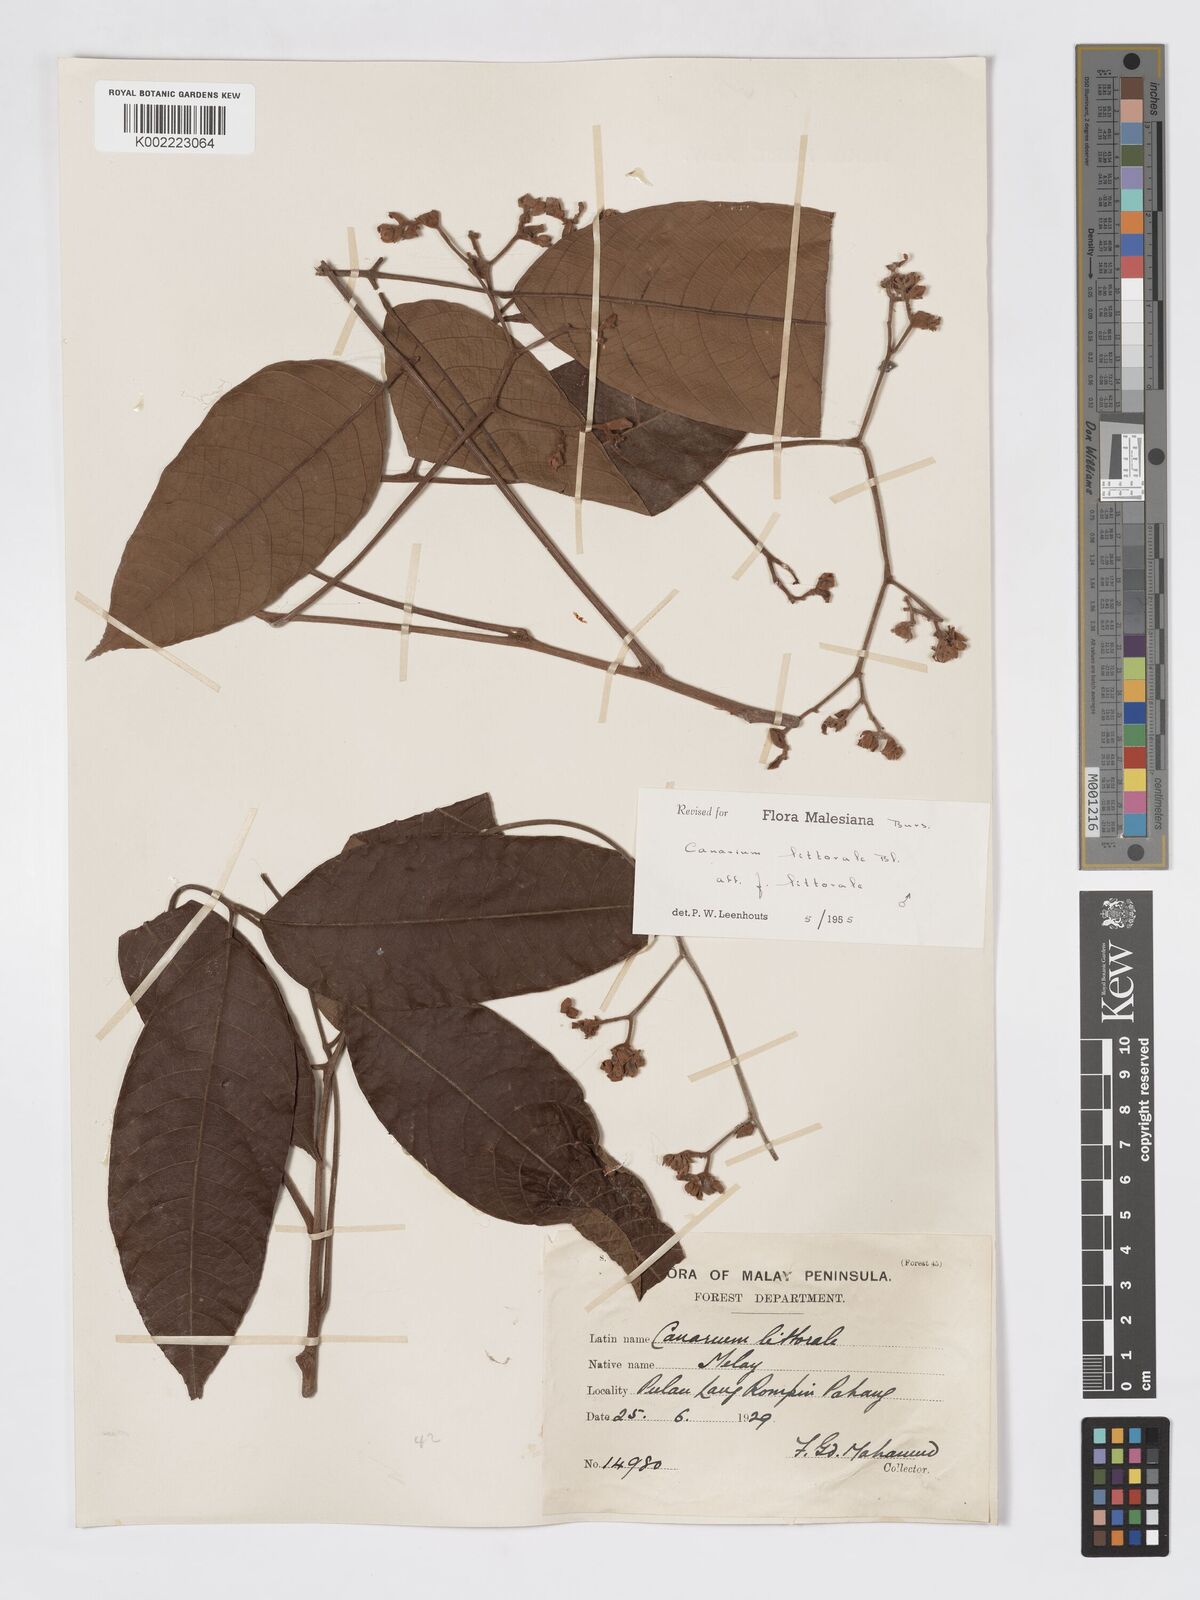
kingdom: Plantae
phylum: Tracheophyta
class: Magnoliopsida
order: Sapindales
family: Burseraceae
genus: Canarium
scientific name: Canarium littorale
